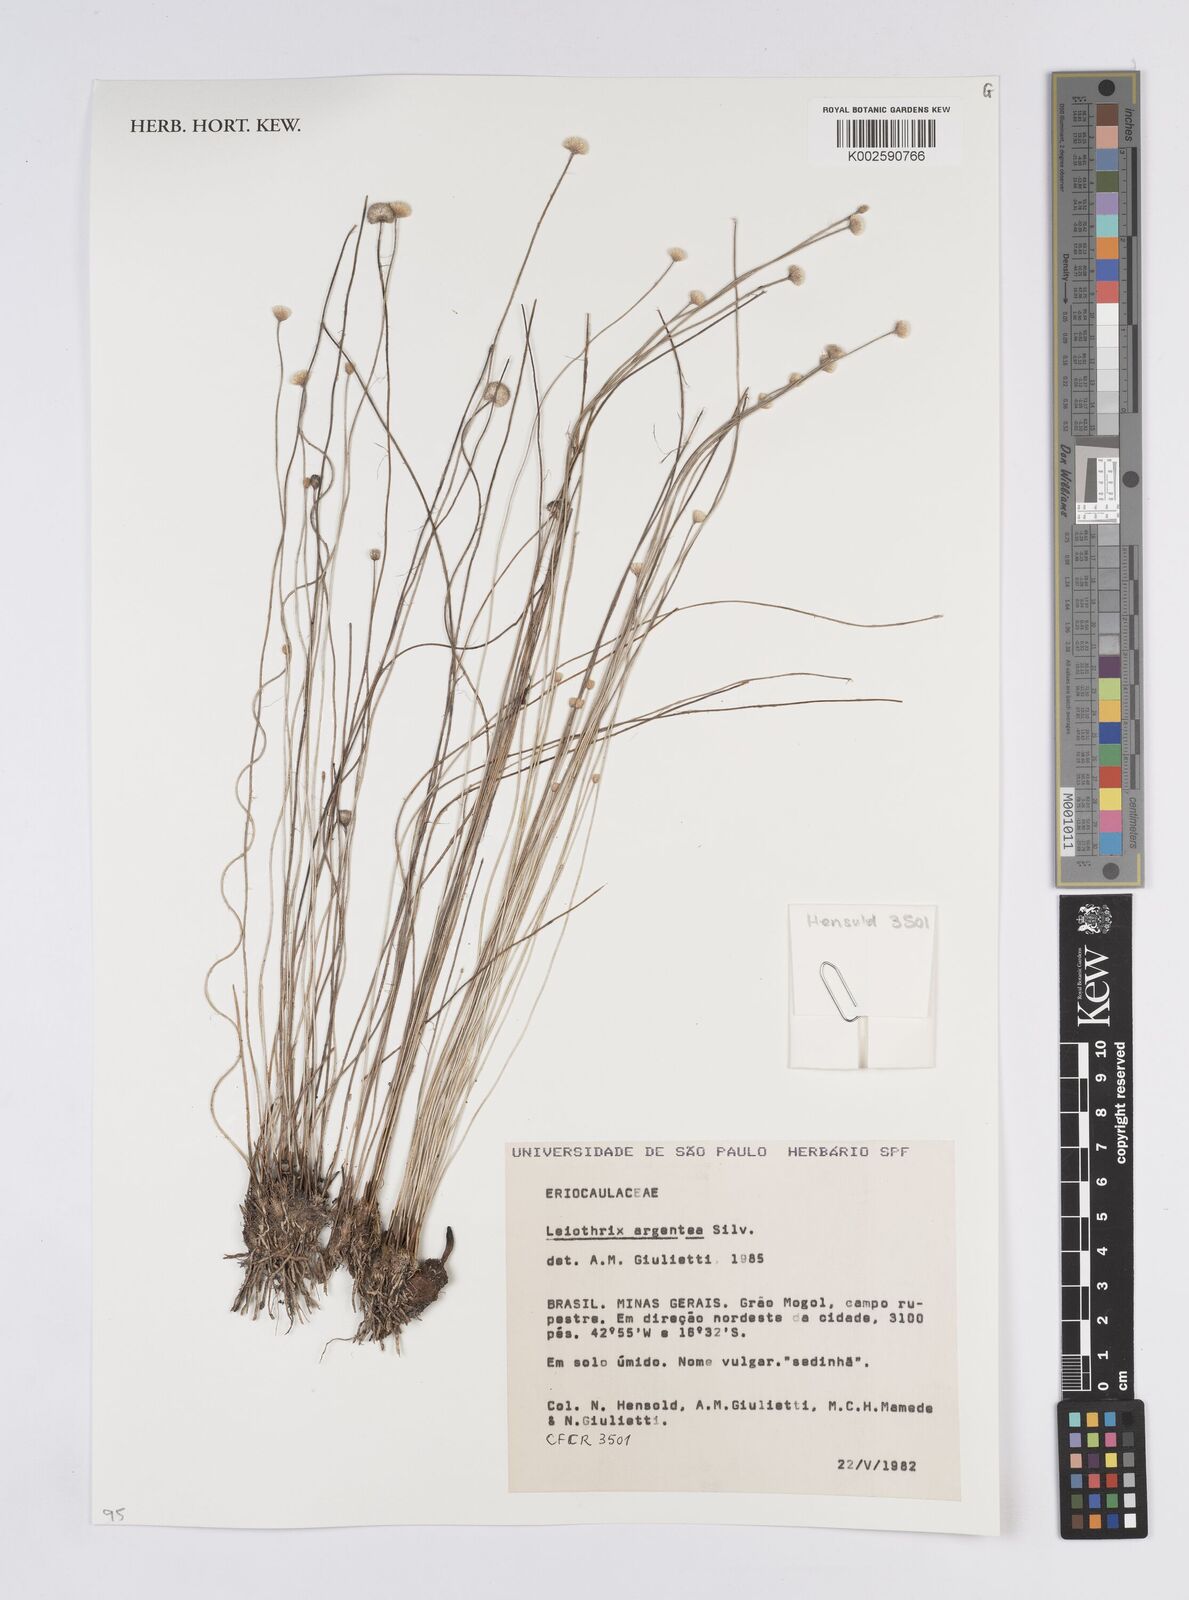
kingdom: Plantae
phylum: Tracheophyta
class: Liliopsida
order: Poales
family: Eriocaulaceae
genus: Leiothrix
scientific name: Leiothrix argentea
